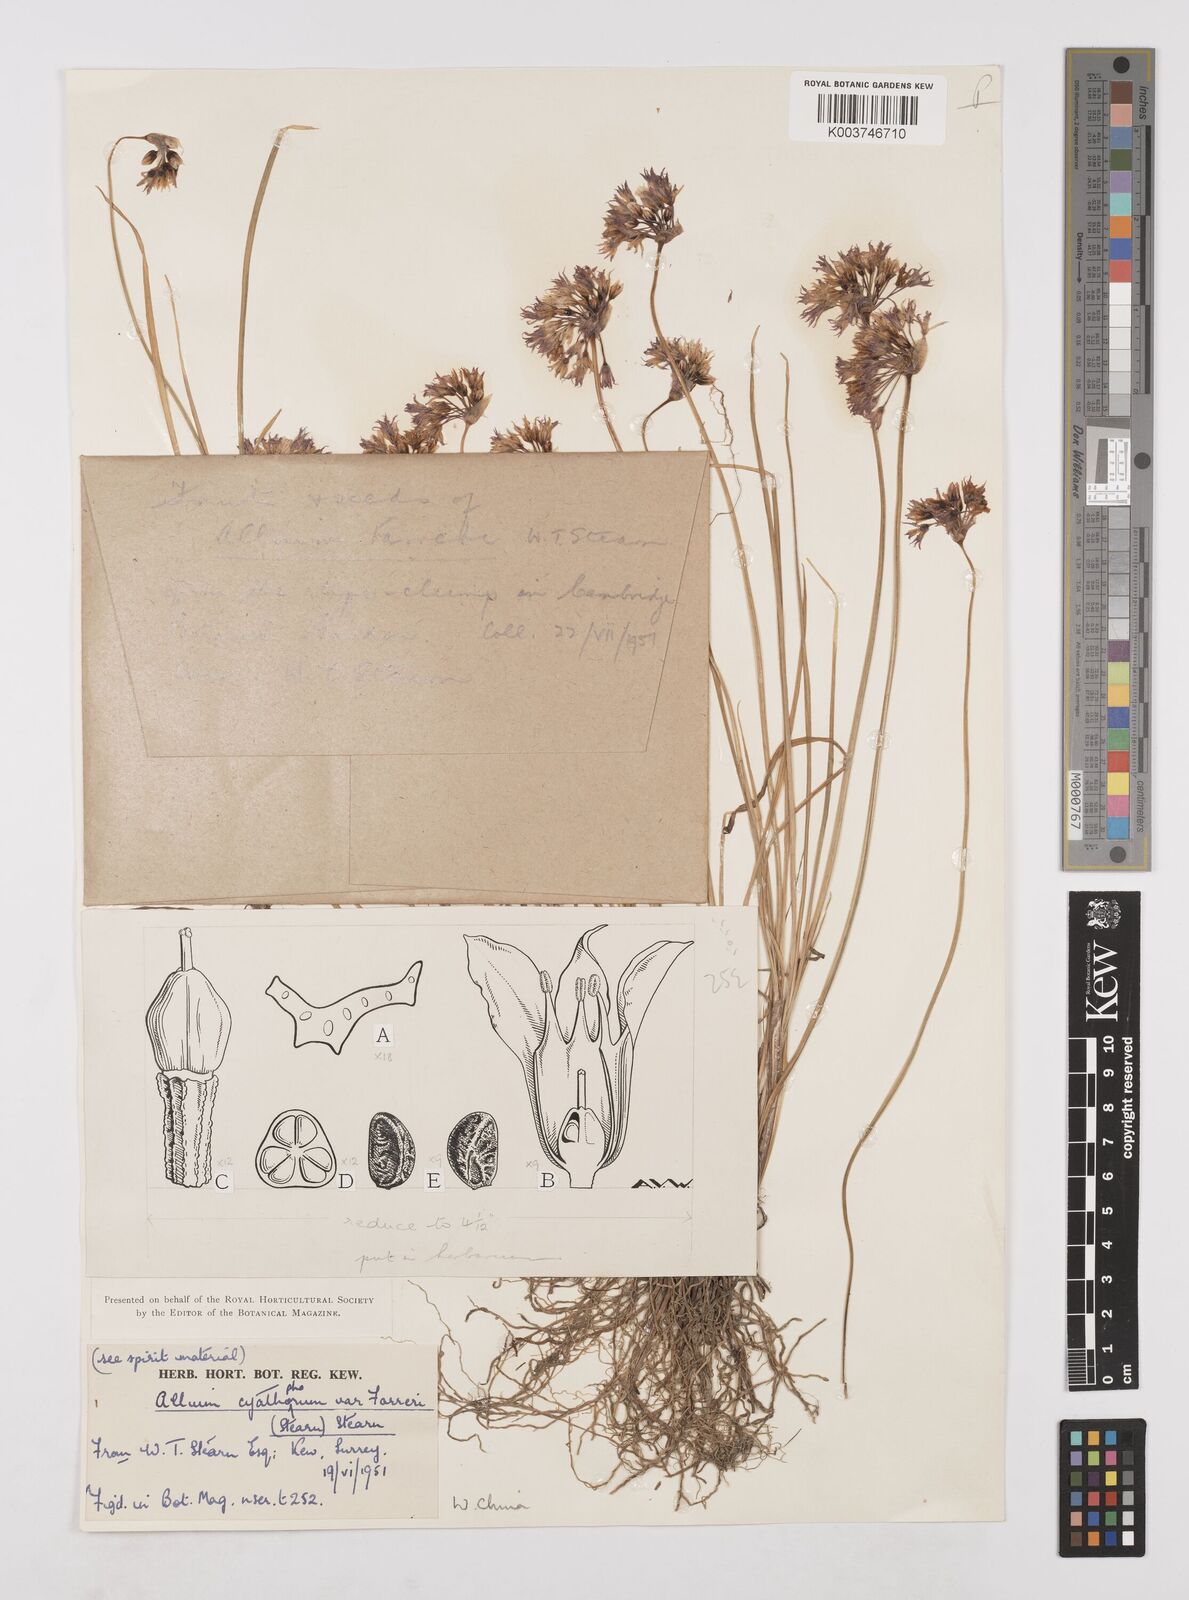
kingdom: Plantae
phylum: Tracheophyta
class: Liliopsida
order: Asparagales
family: Amaryllidaceae
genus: Allium
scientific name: Allium farreri
